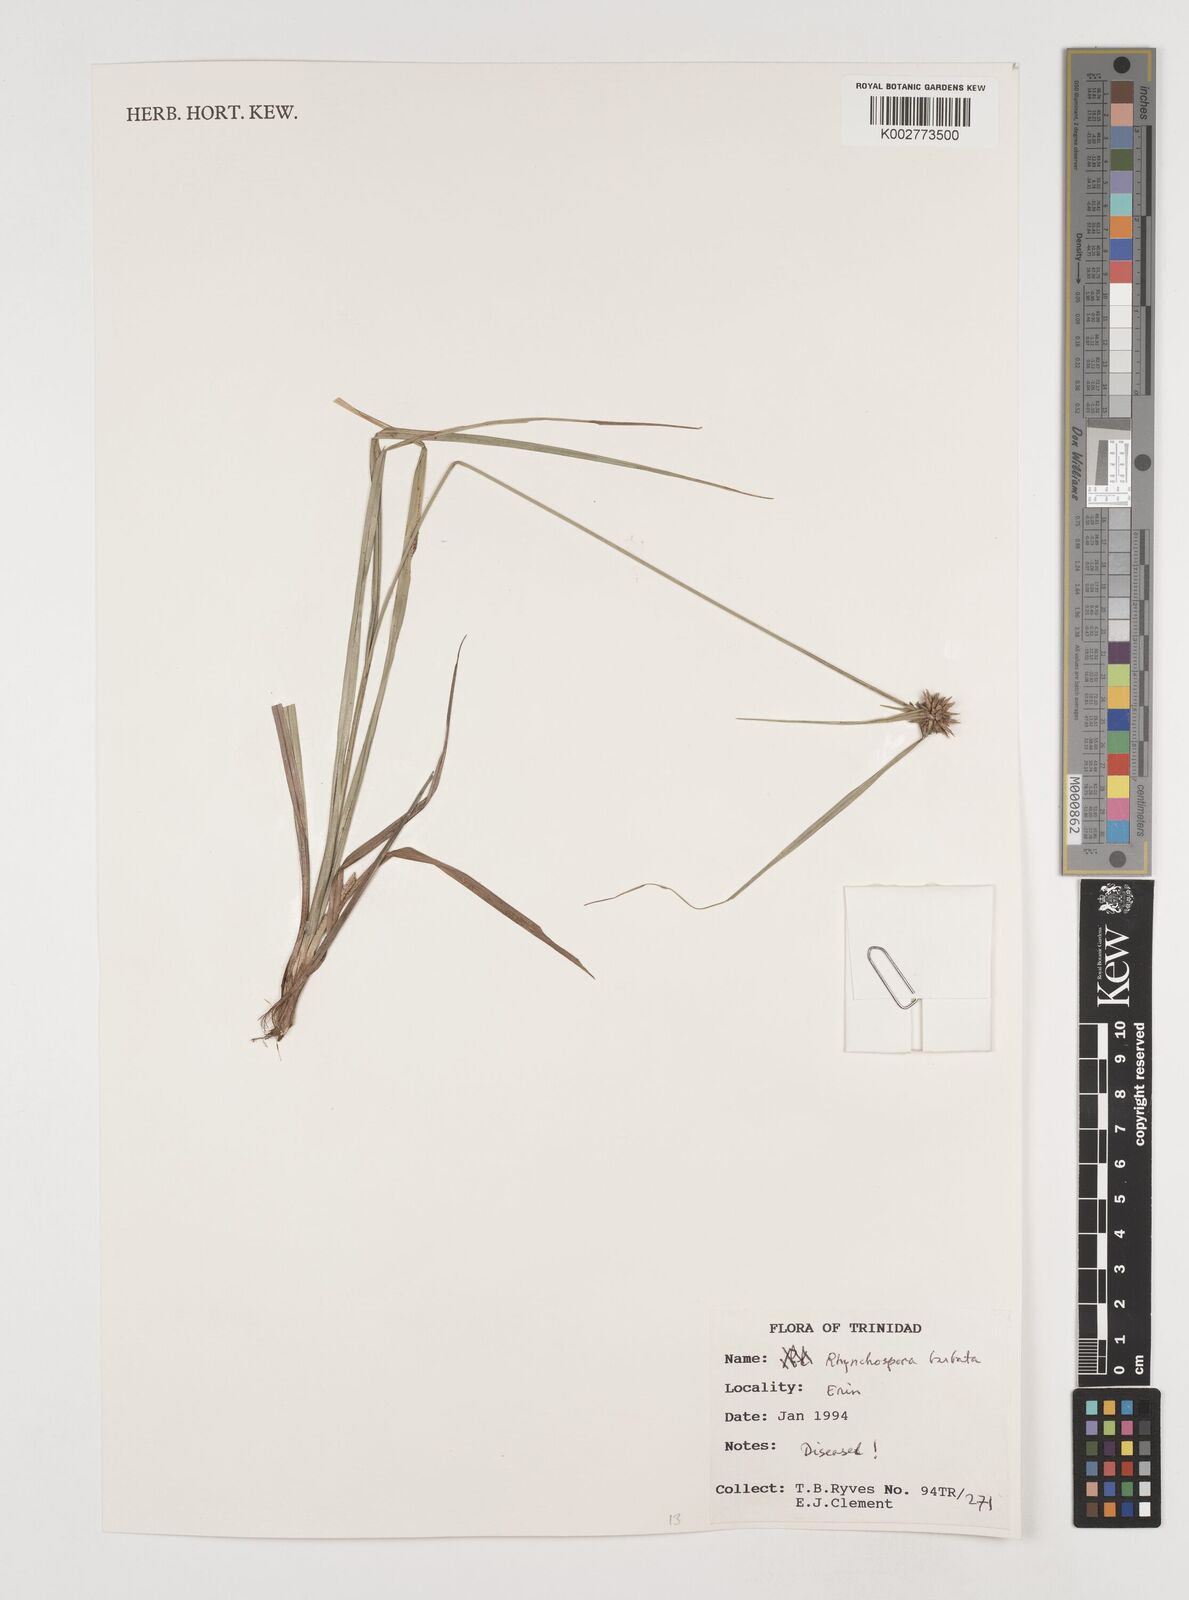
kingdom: Plantae
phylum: Tracheophyta
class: Liliopsida
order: Poales
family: Cyperaceae
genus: Rhynchospora
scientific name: Rhynchospora barbata
